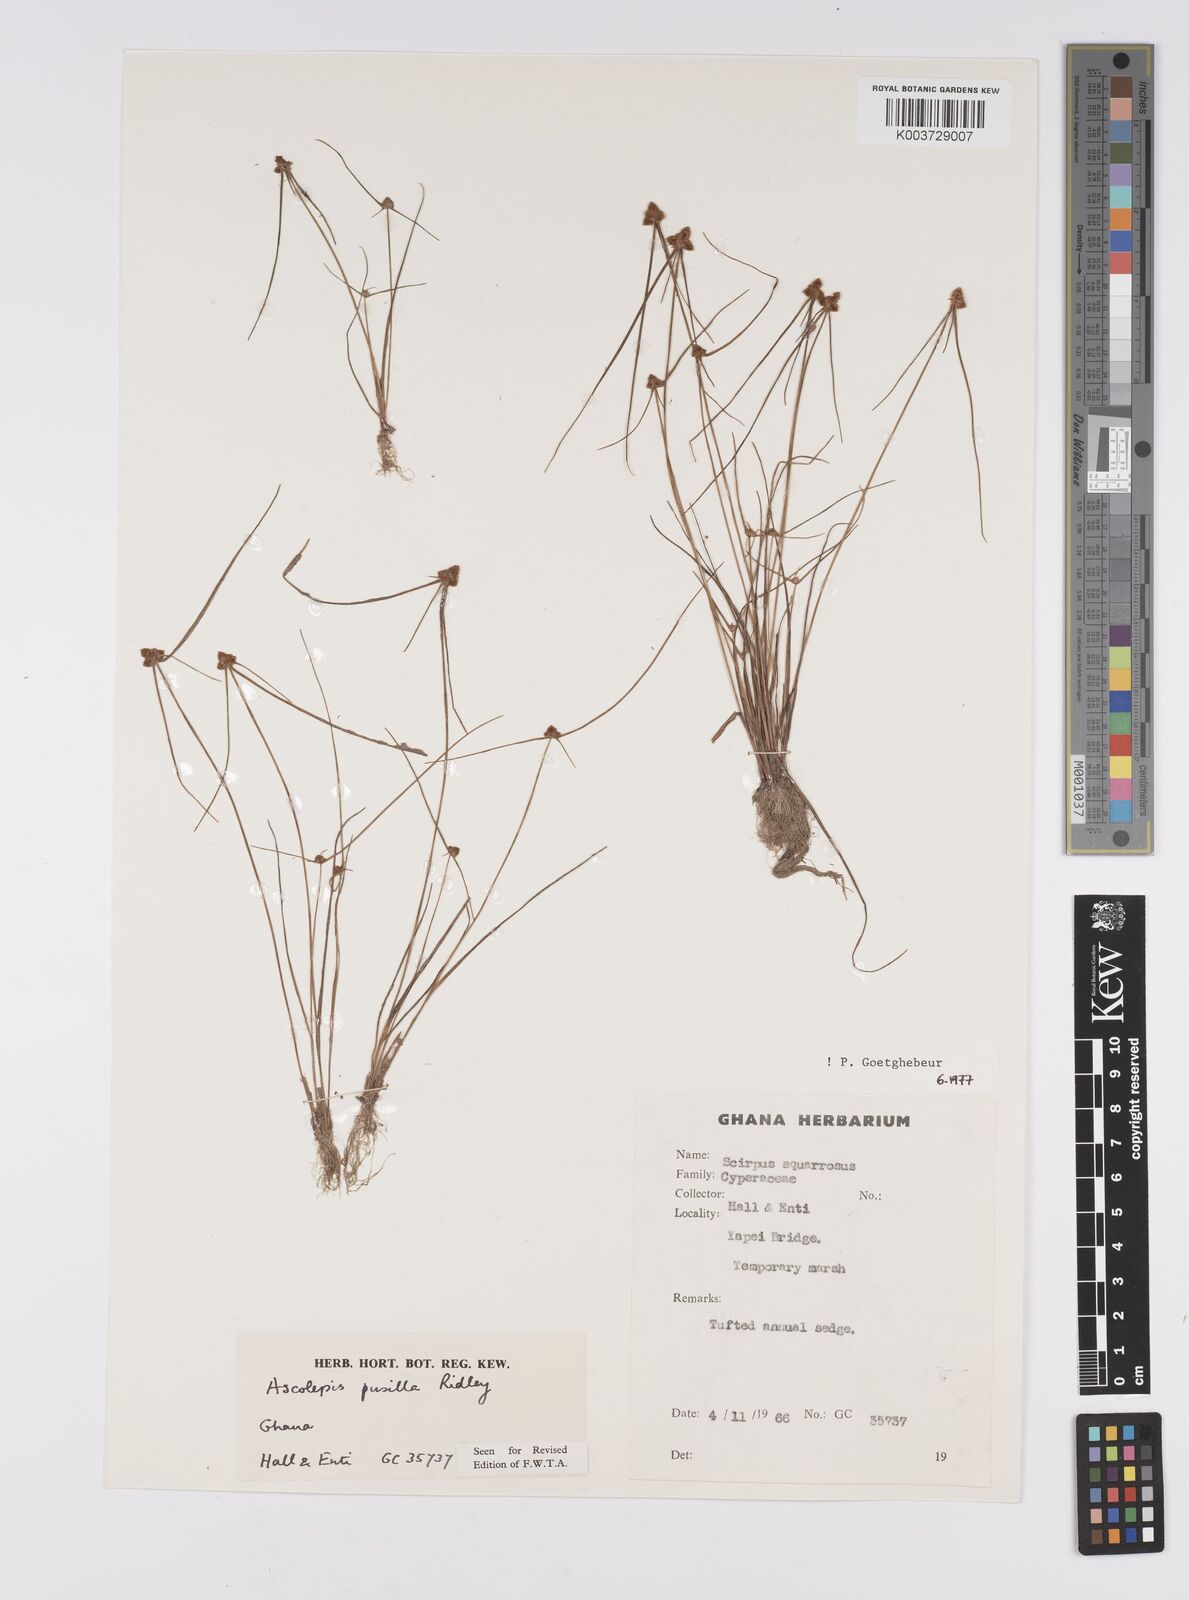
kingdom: Plantae
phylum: Tracheophyta
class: Liliopsida
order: Poales
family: Cyperaceae
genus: Ascolepis
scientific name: Ascolepis
